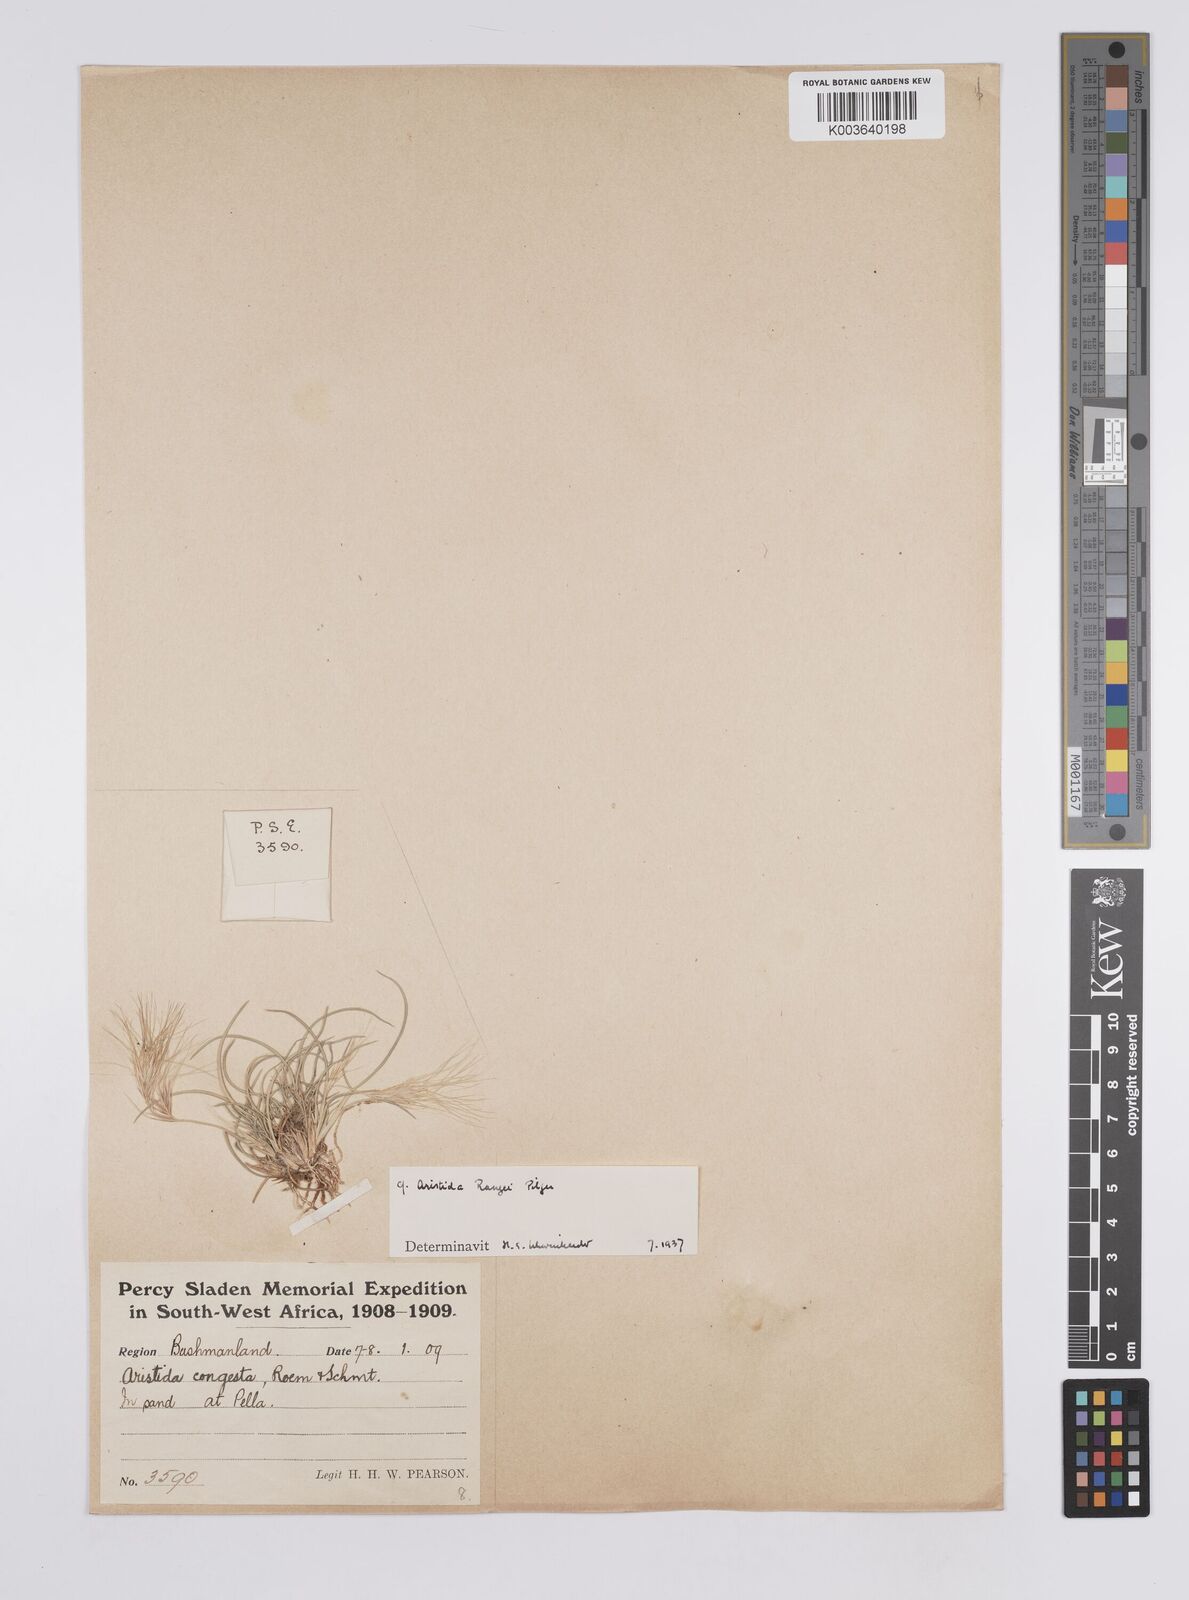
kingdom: Plantae
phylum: Tracheophyta
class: Liliopsida
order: Poales
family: Poaceae
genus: Aristida
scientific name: Aristida congesta
